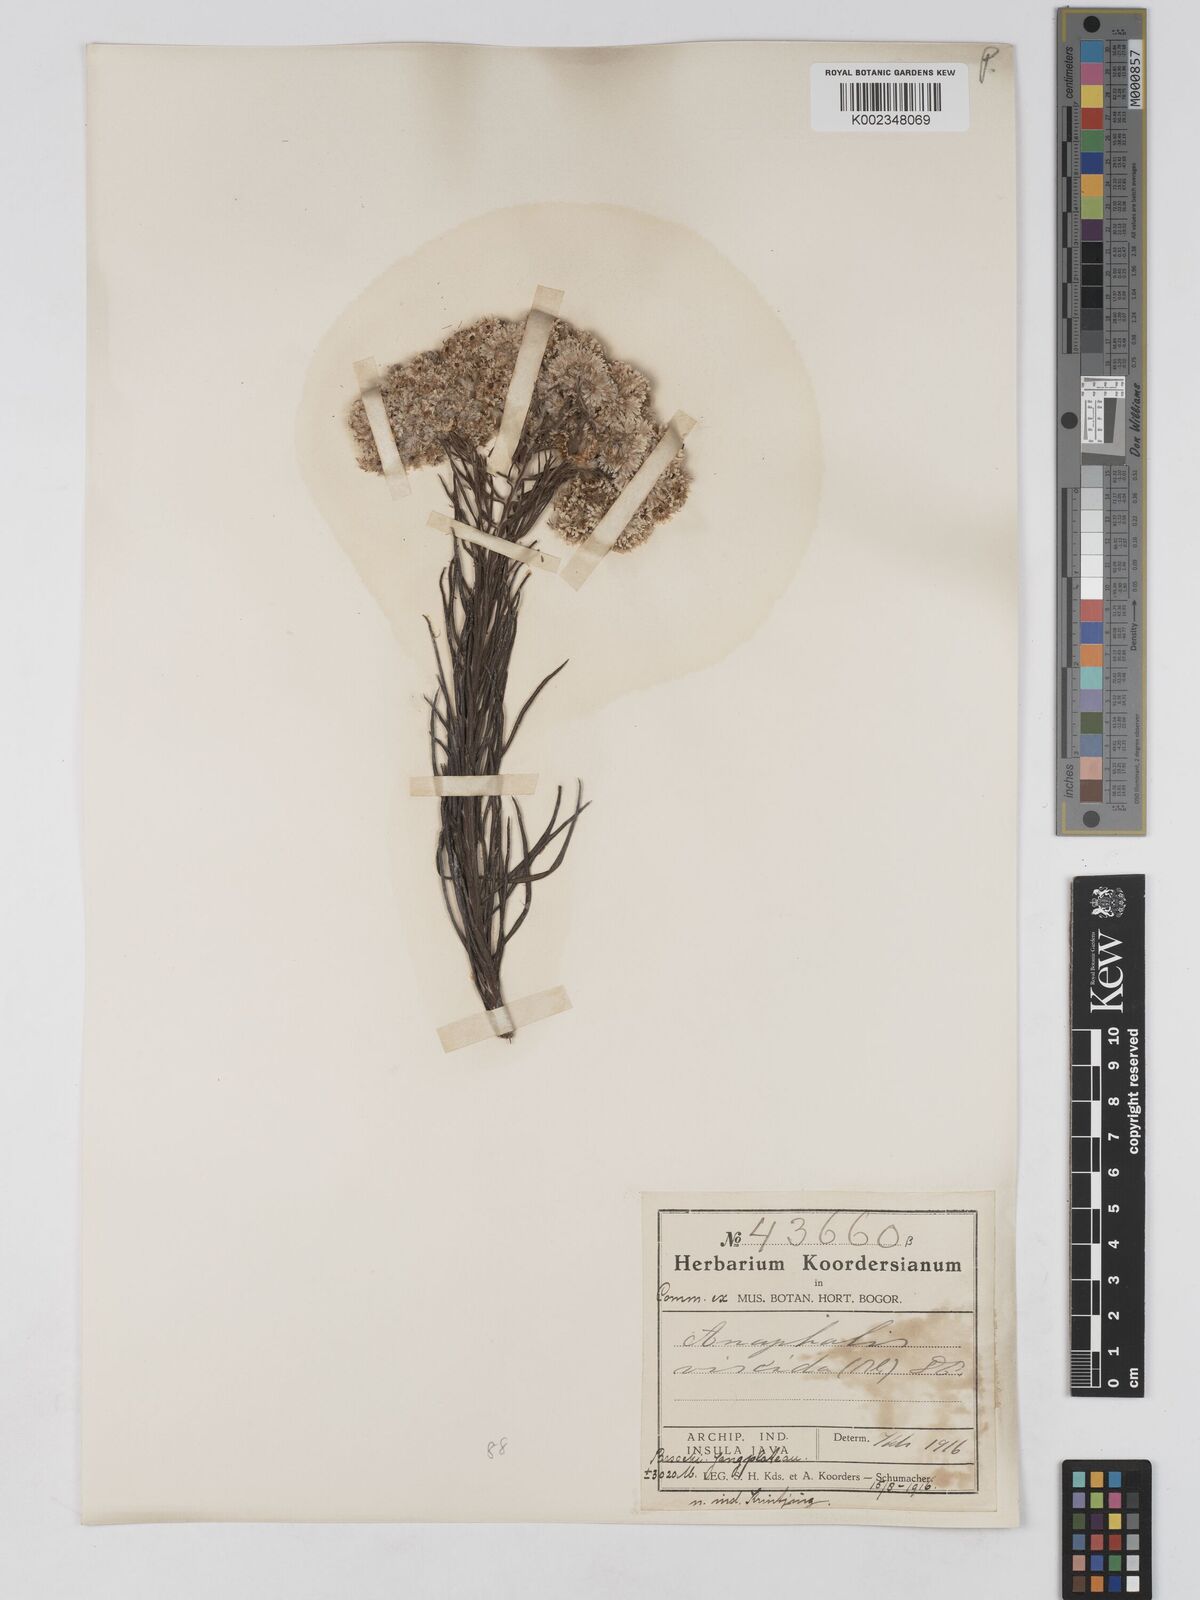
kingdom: Plantae
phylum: Tracheophyta
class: Magnoliopsida
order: Asterales
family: Asteraceae
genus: Anaphalis
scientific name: Anaphalis viscida
